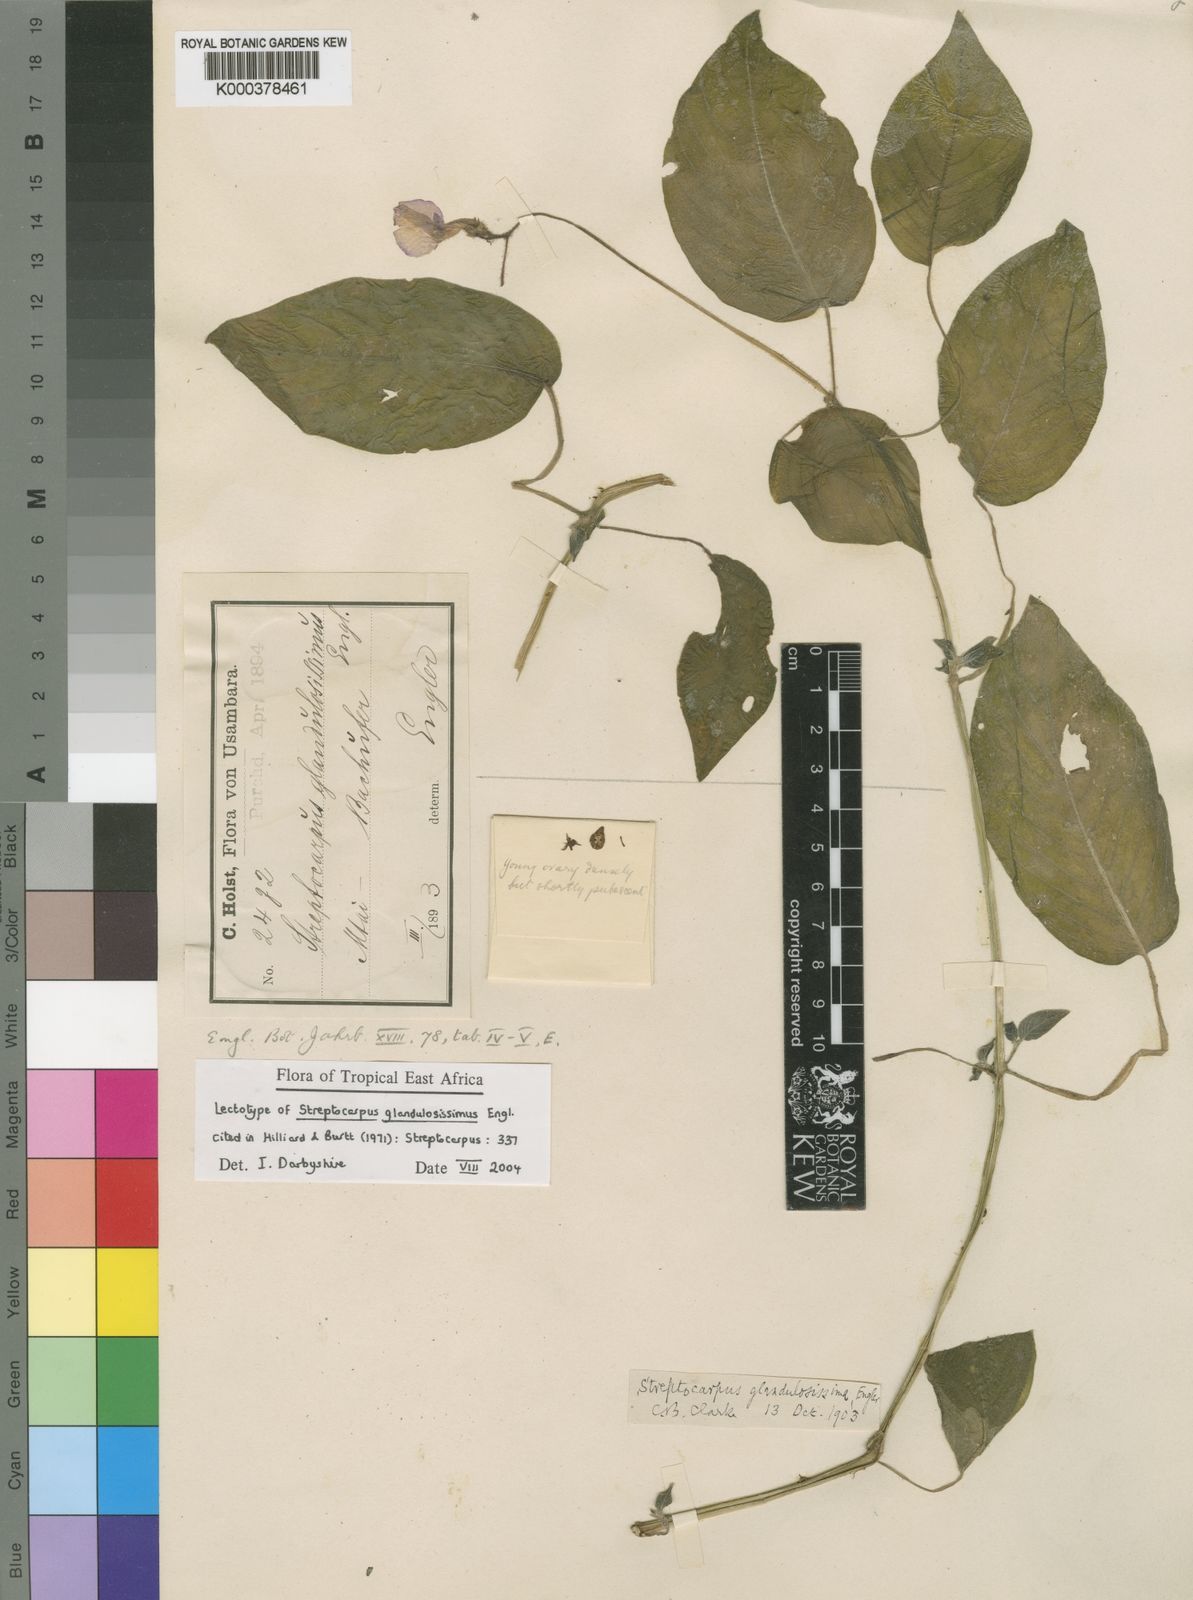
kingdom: Plantae
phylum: Tracheophyta
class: Magnoliopsida
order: Lamiales
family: Gesneriaceae
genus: Streptocarpus
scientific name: Streptocarpus glandulosissimus
